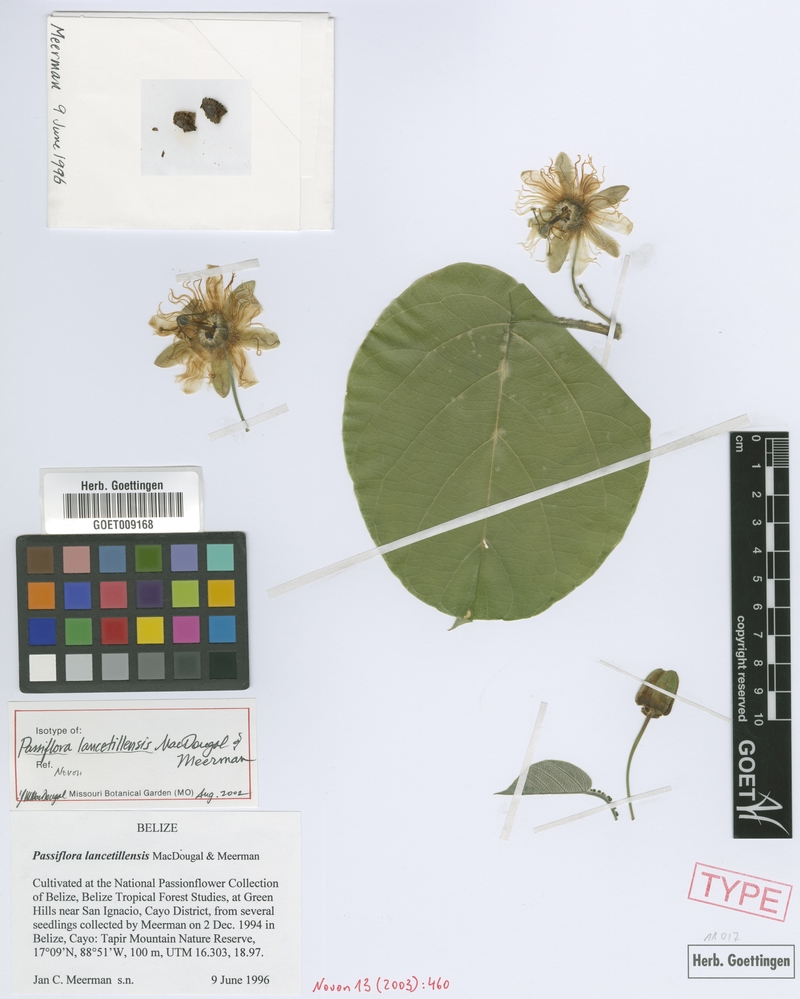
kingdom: Plantae
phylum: Tracheophyta
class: Magnoliopsida
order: Malpighiales
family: Passifloraceae
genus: Passiflora
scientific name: Passiflora lancetillensis
